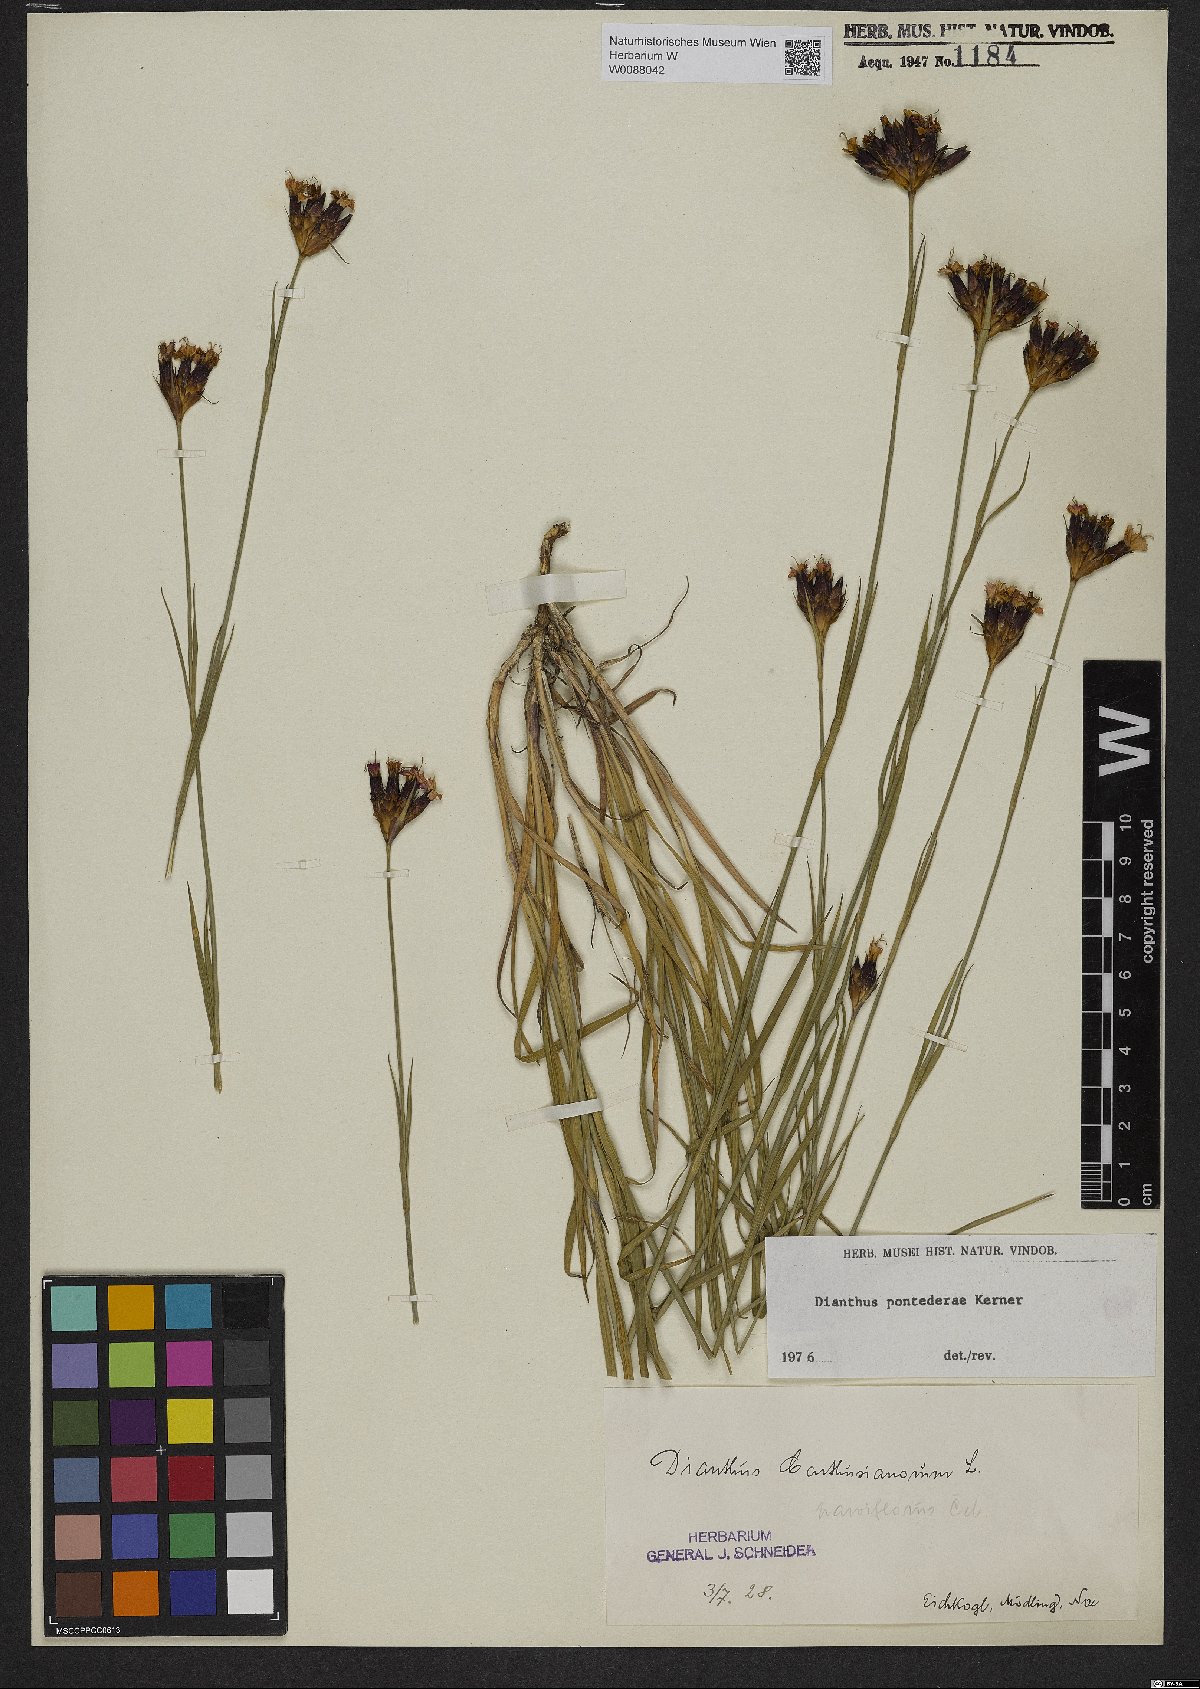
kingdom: Plantae
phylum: Tracheophyta
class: Magnoliopsida
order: Caryophyllales
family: Caryophyllaceae
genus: Dianthus
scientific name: Dianthus pontederae
